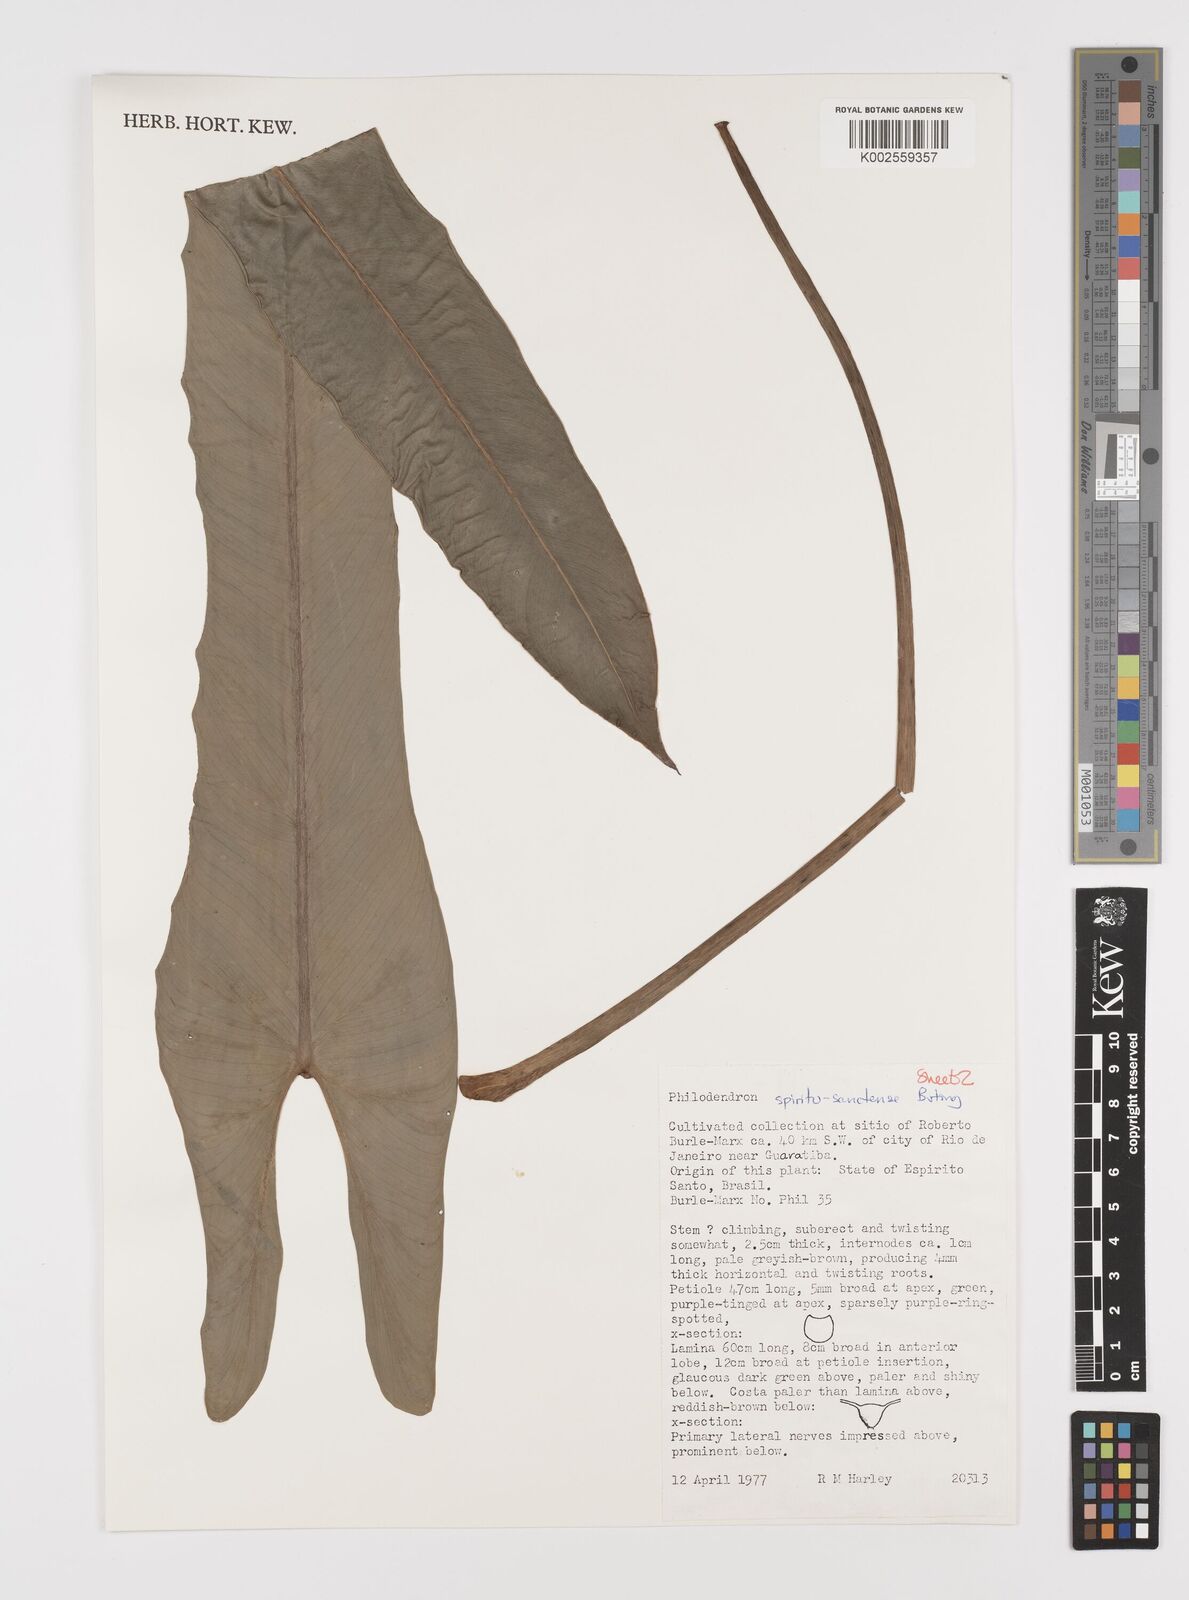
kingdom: Plantae
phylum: Tracheophyta
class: Liliopsida
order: Alismatales
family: Araceae
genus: Philodendron
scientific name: Philodendron spiritus-sancti
